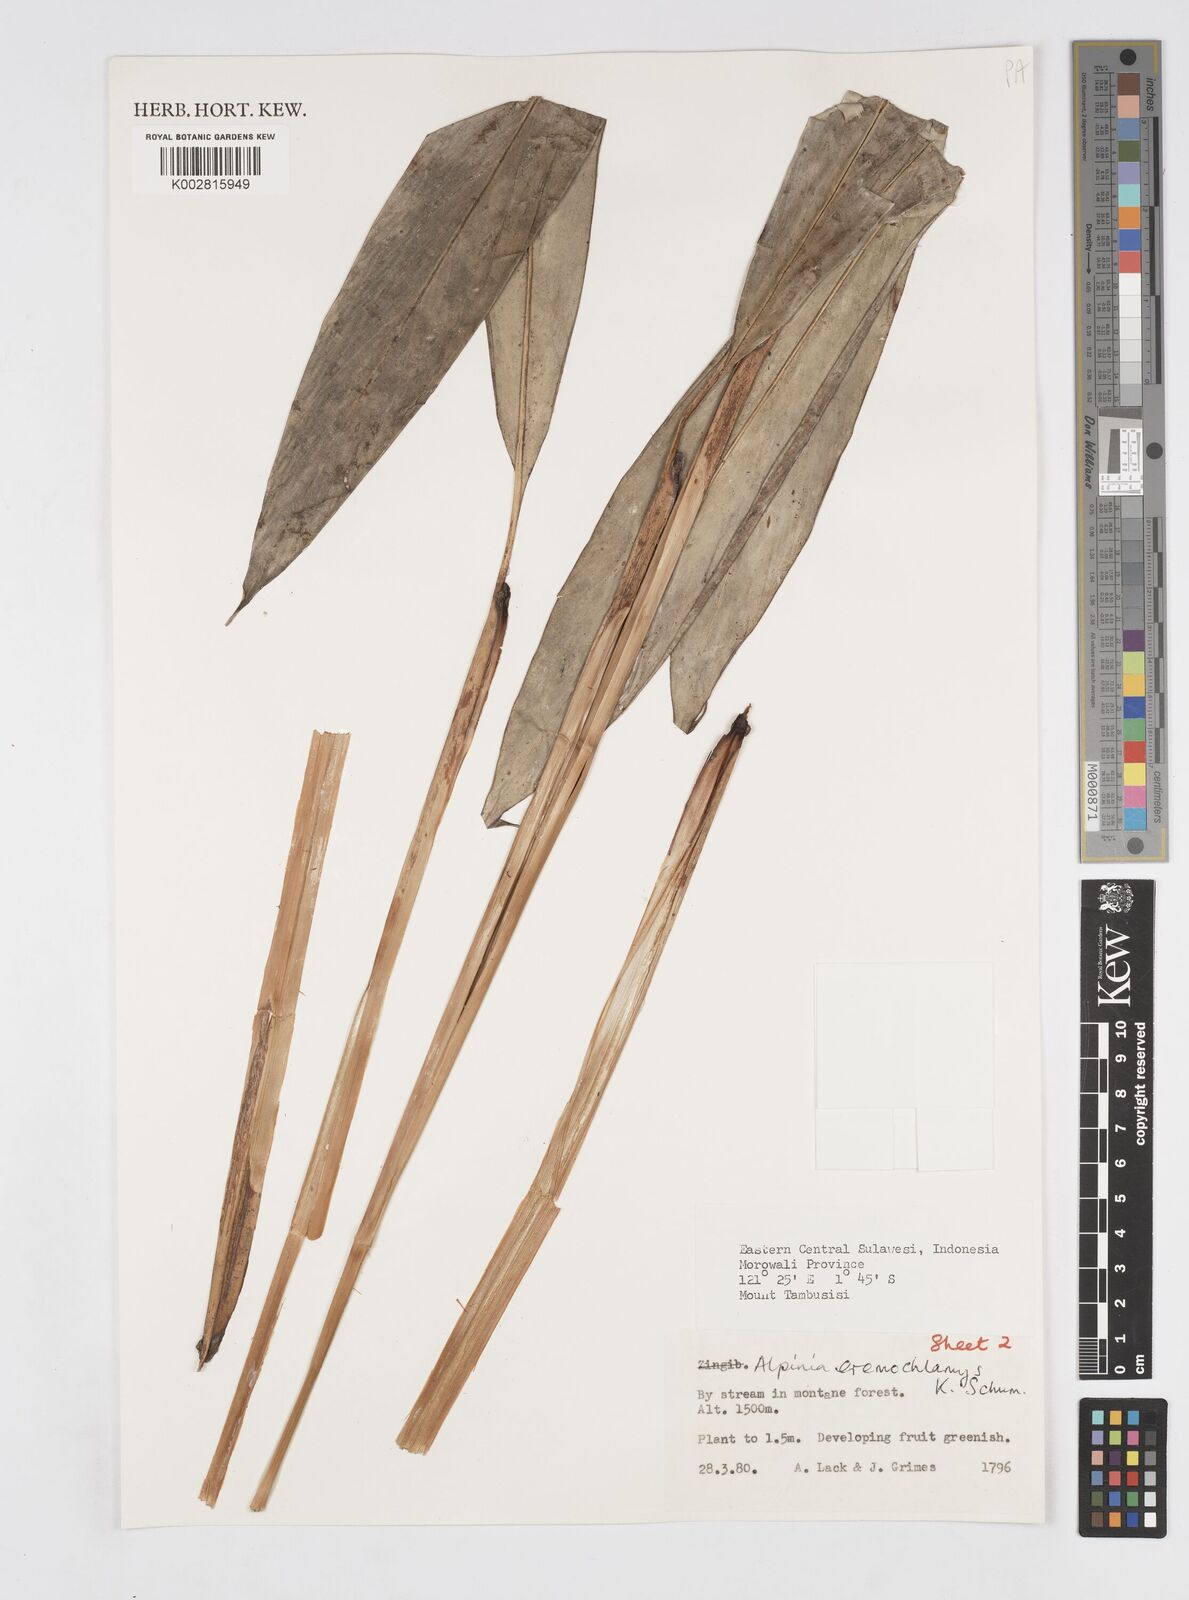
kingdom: Plantae
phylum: Tracheophyta
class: Liliopsida
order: Zingiberales
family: Zingiberaceae
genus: Alpinia
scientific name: Alpinia eremochlamys
